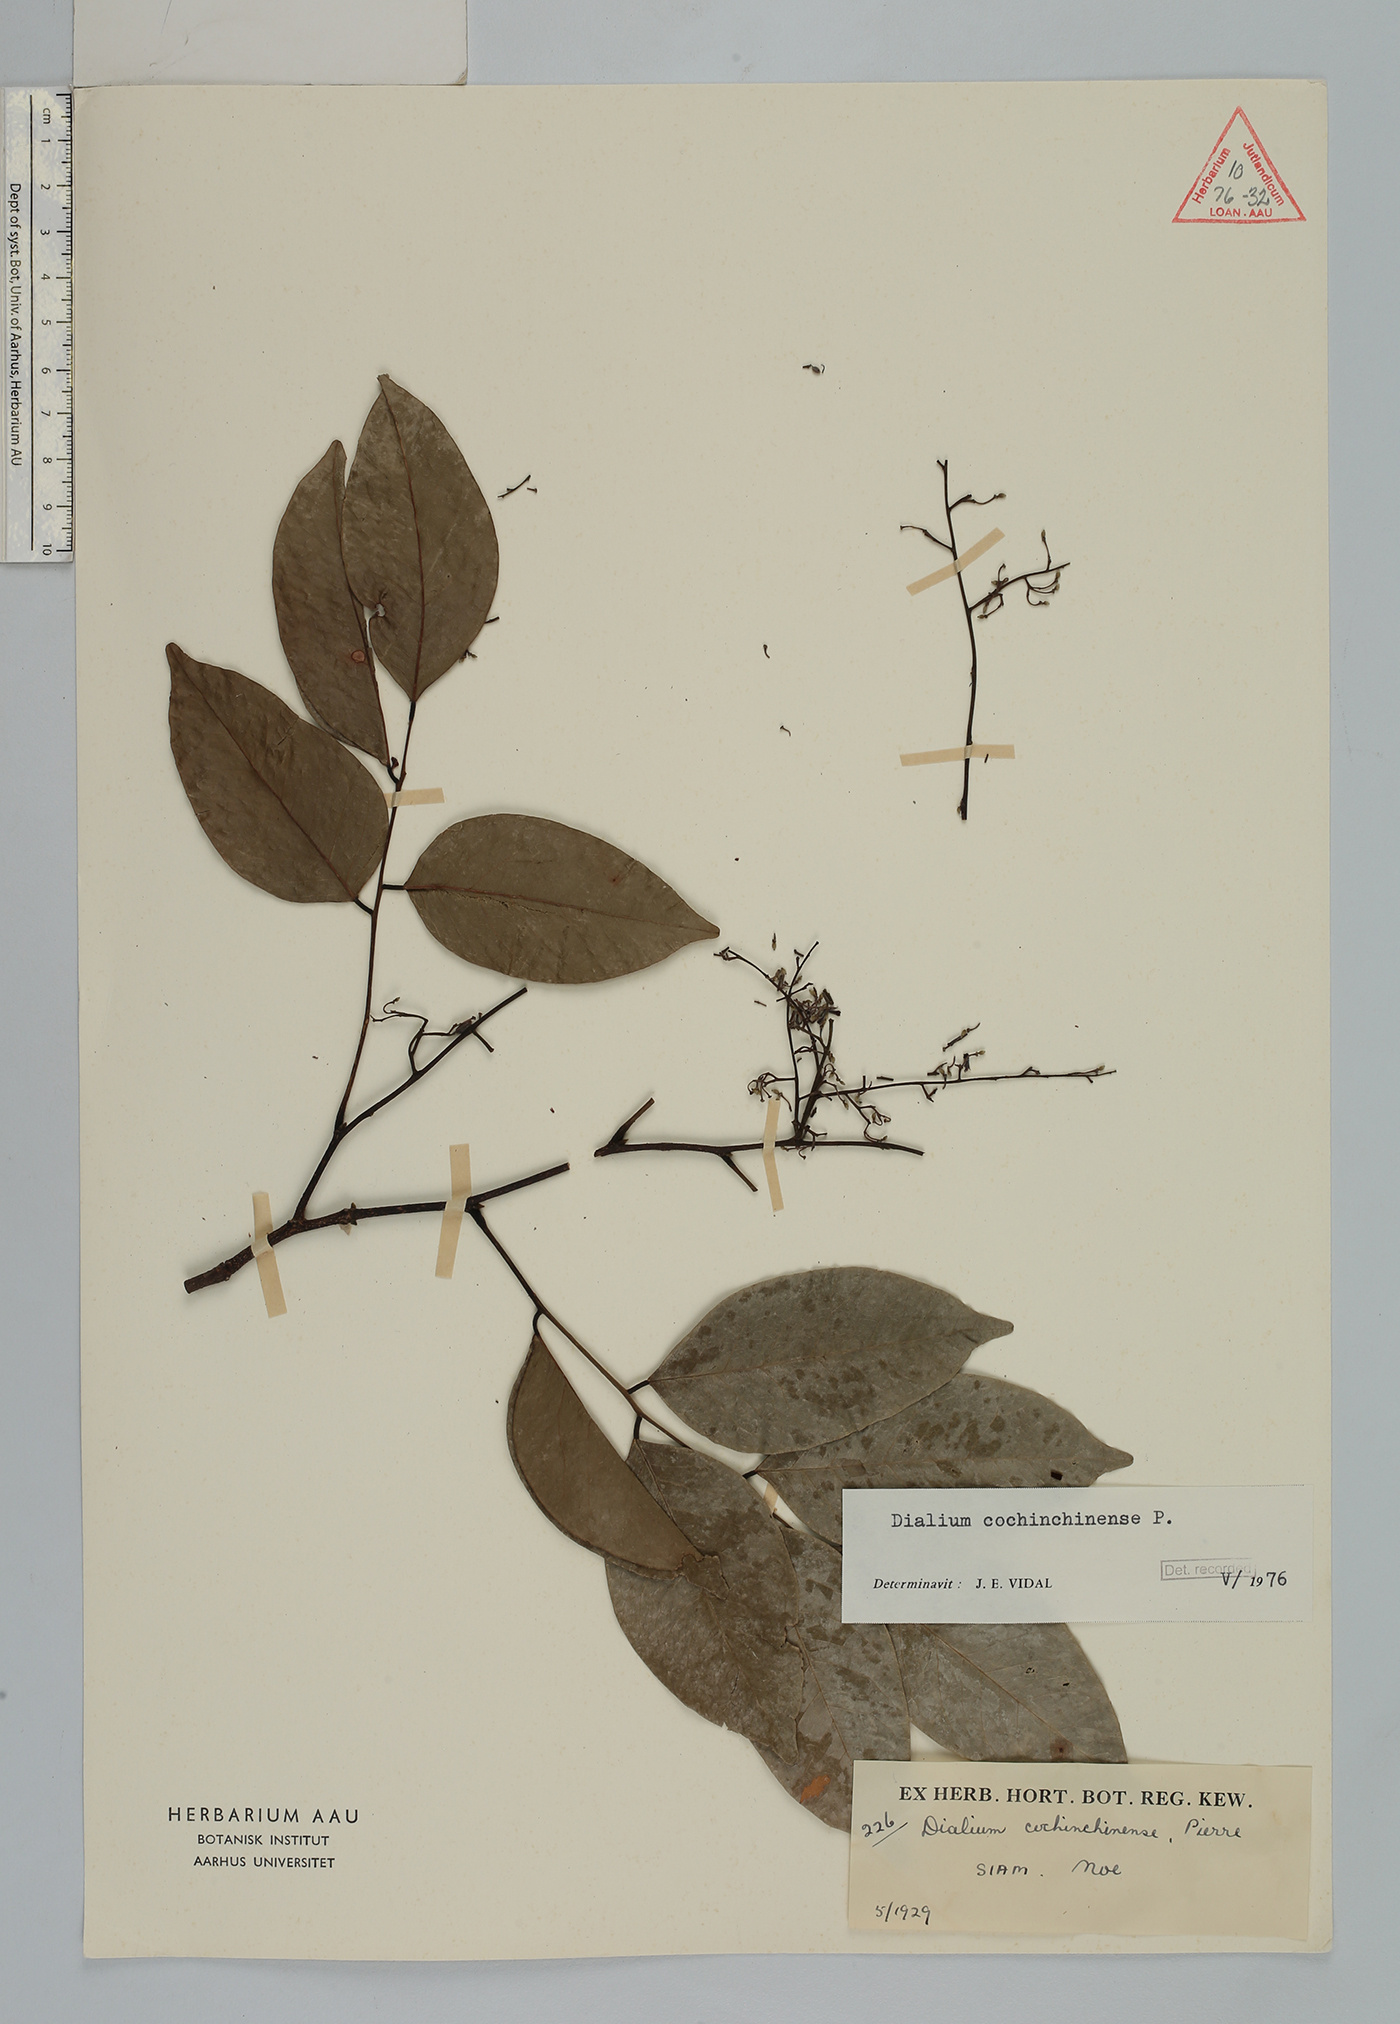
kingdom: Plantae
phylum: Tracheophyta
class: Magnoliopsida
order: Fabales
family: Fabaceae
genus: Dialium
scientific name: Dialium cochinchinense
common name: Velvet tamarind
